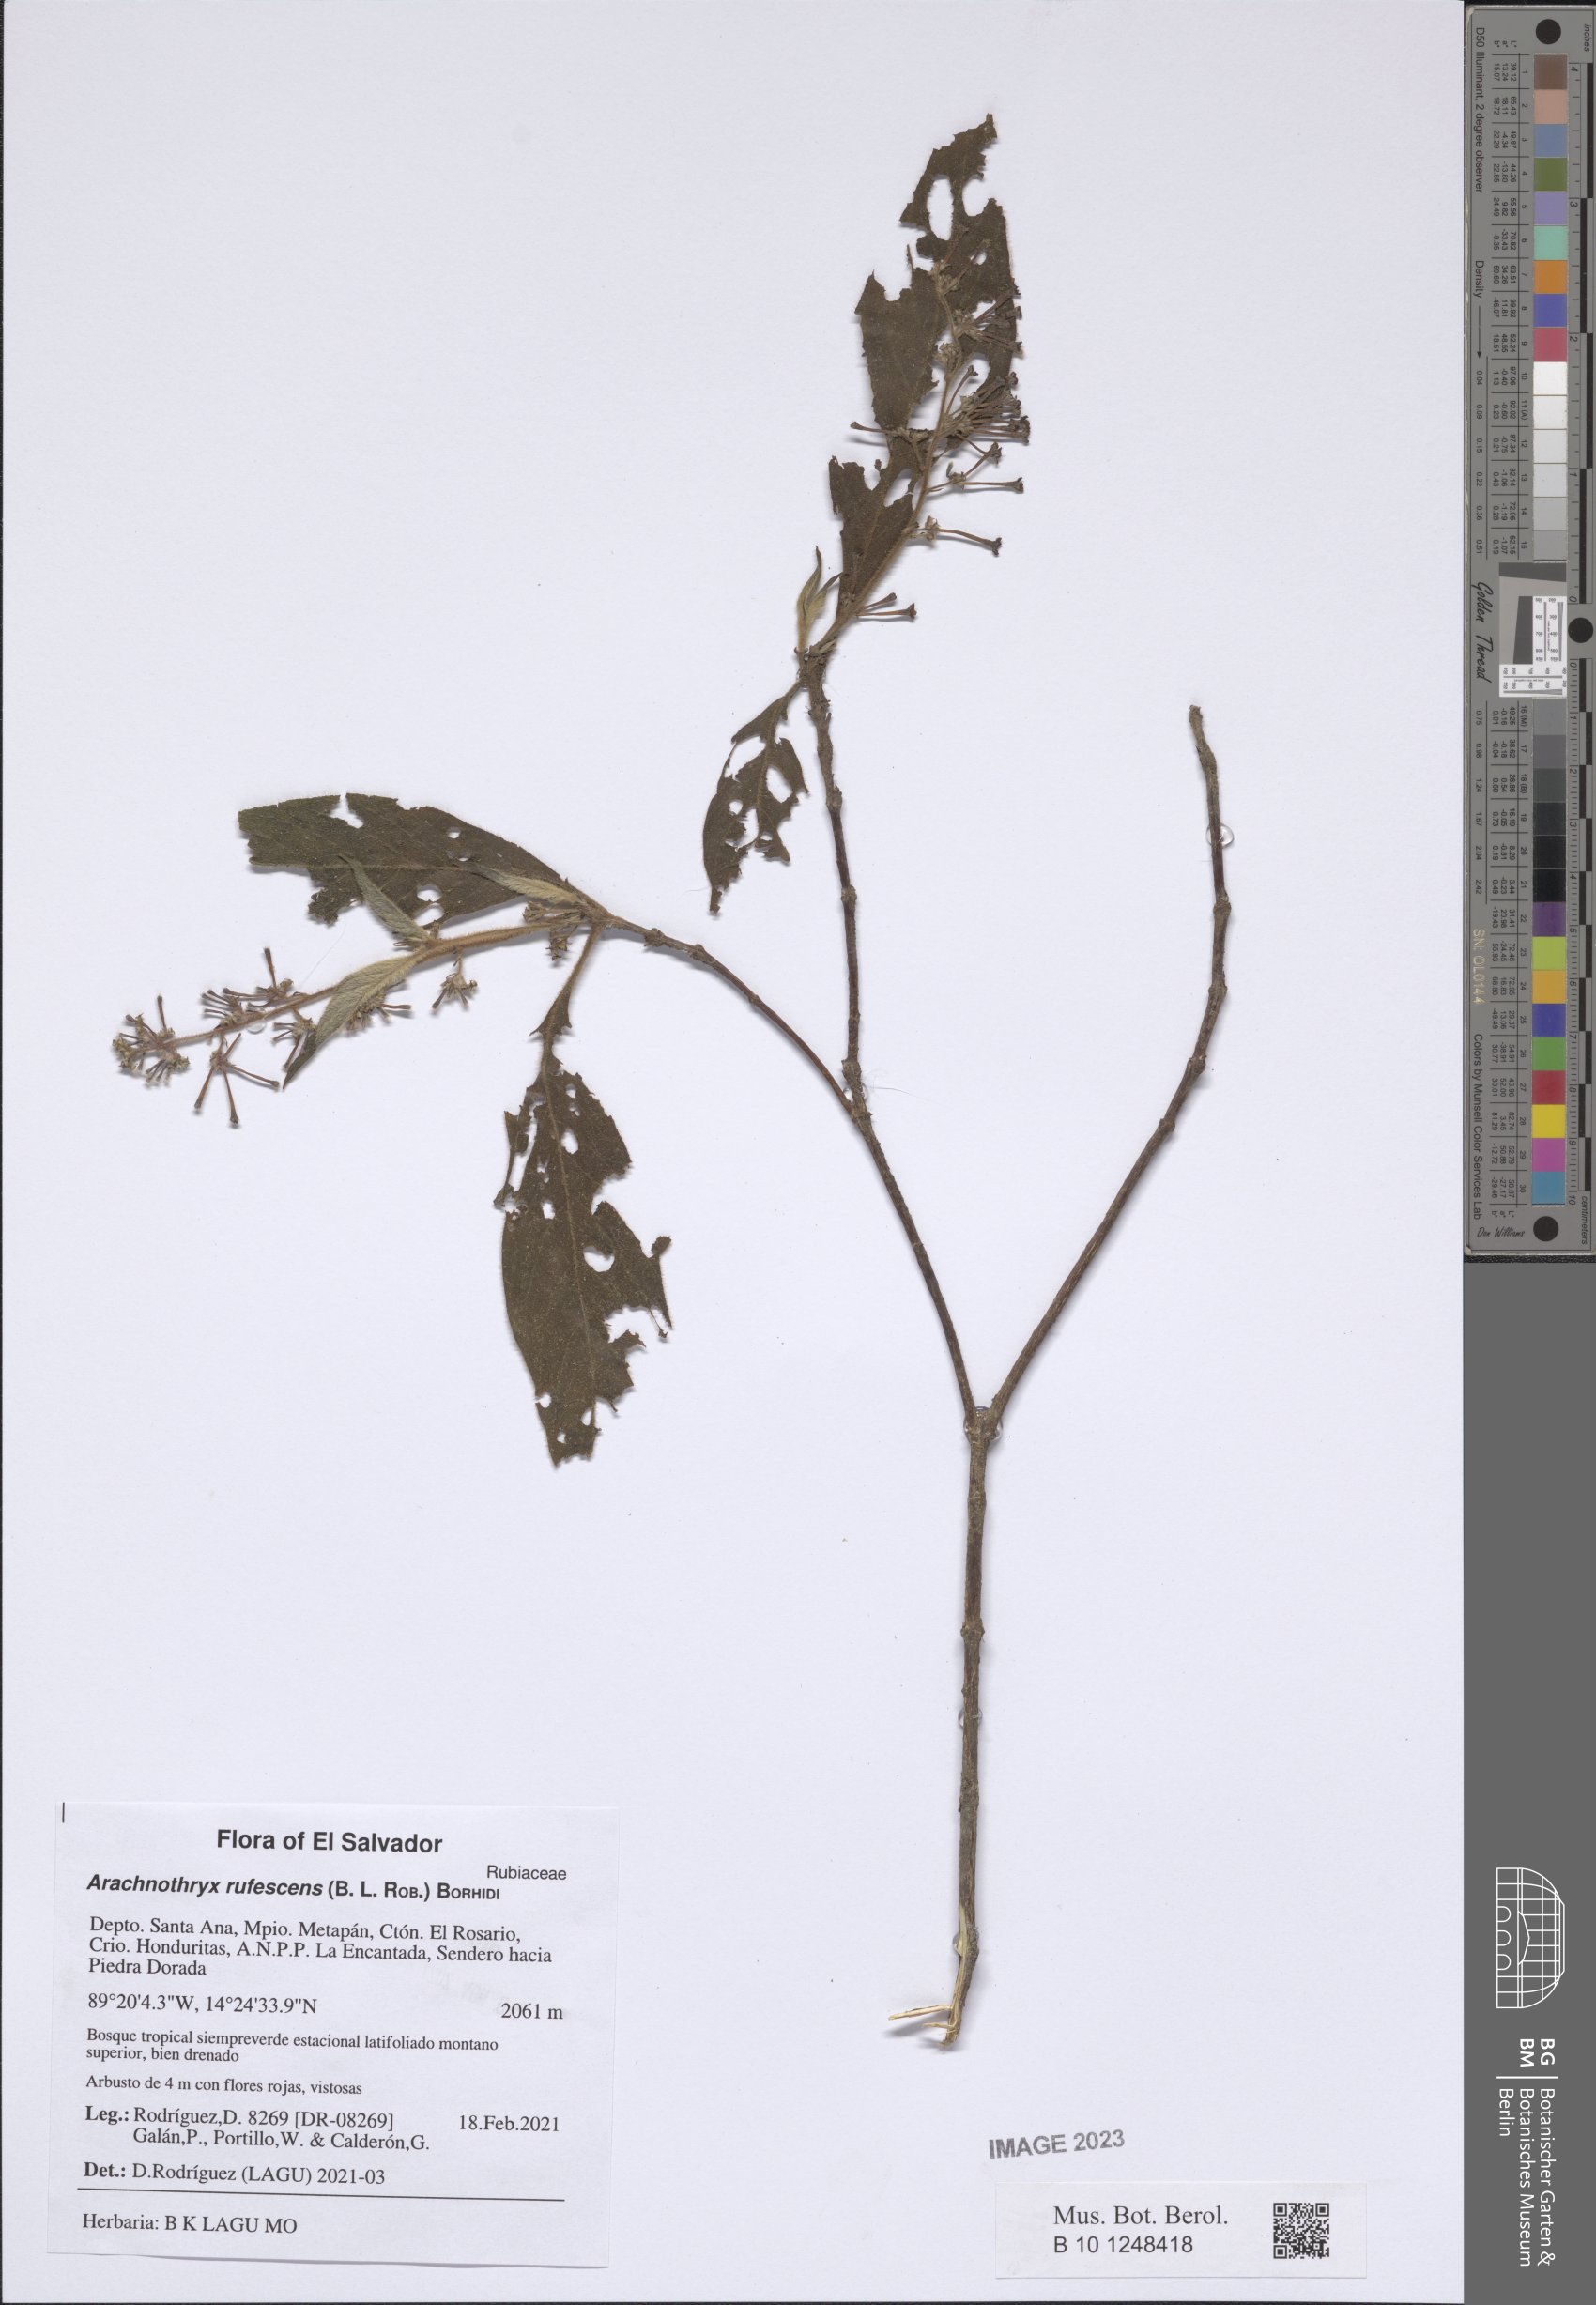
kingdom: Plantae
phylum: Tracheophyta
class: Magnoliopsida
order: Gentianales
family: Rubiaceae
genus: Arachnothryx
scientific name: Arachnothryx rufescens
